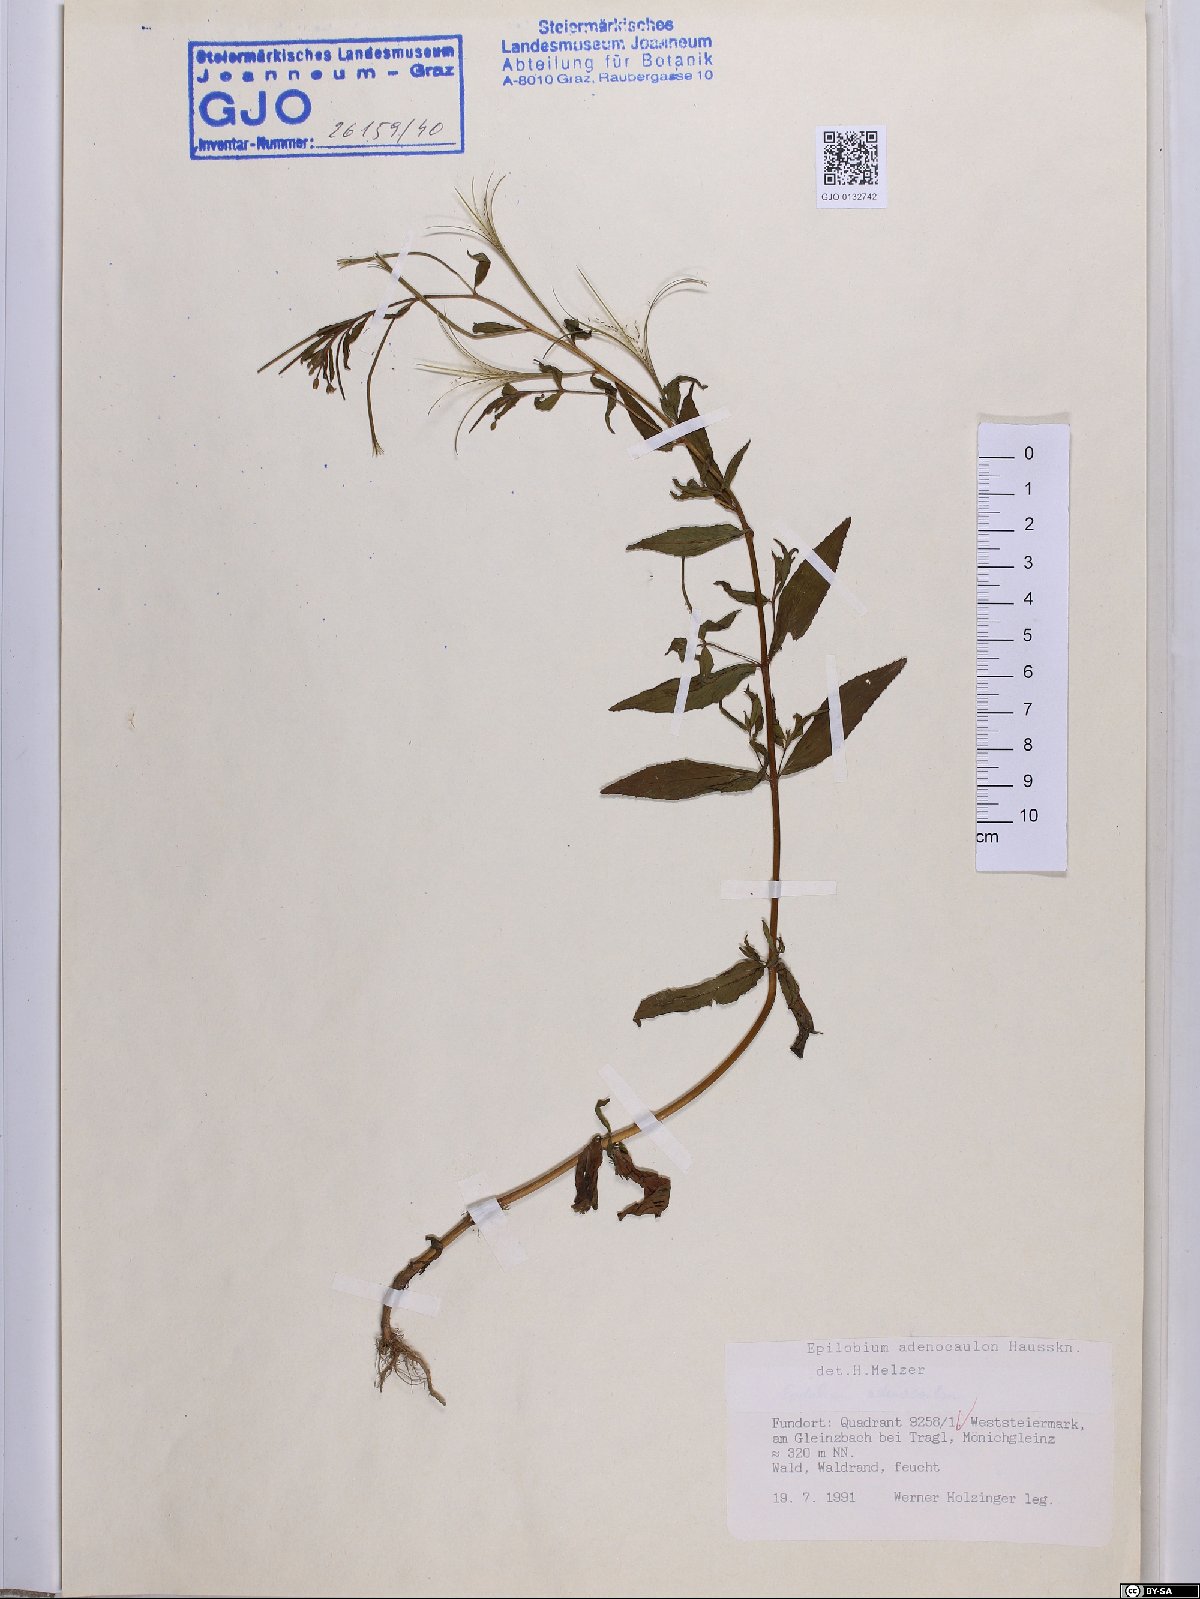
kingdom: Plantae
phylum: Tracheophyta
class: Magnoliopsida
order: Myrtales
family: Onagraceae
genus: Epilobium
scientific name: Epilobium ciliatum
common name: American willowherb
